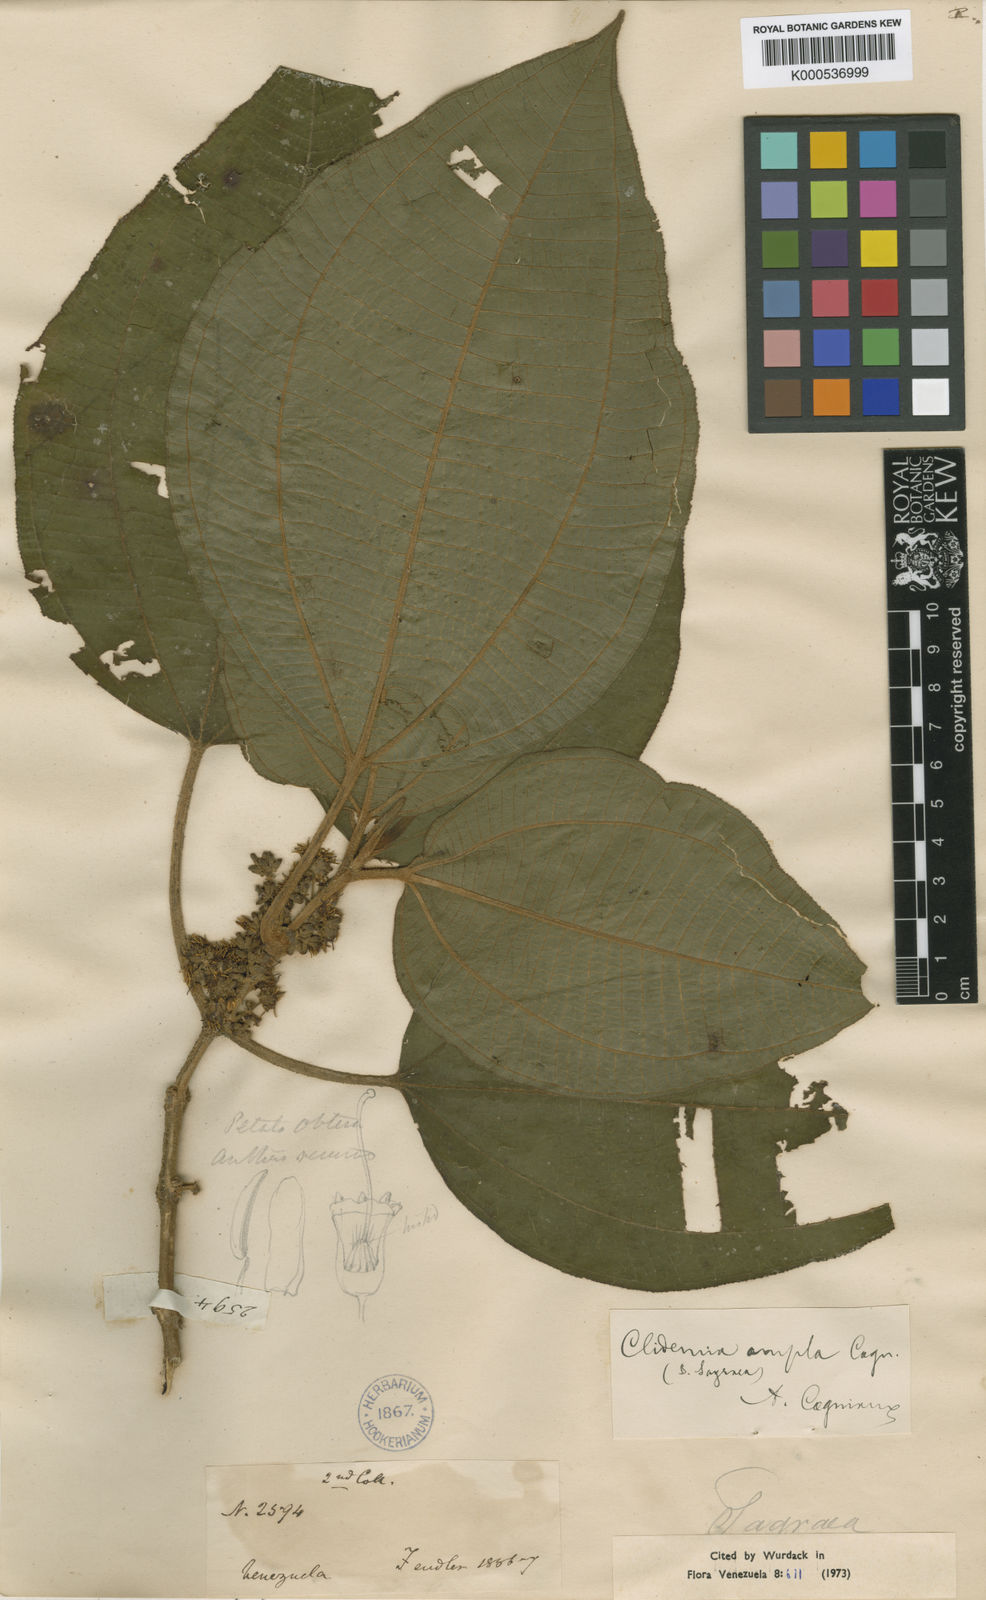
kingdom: Plantae
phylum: Tracheophyta
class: Magnoliopsida
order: Myrtales
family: Melastomataceae
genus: Miconia
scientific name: Miconia amplilamina
